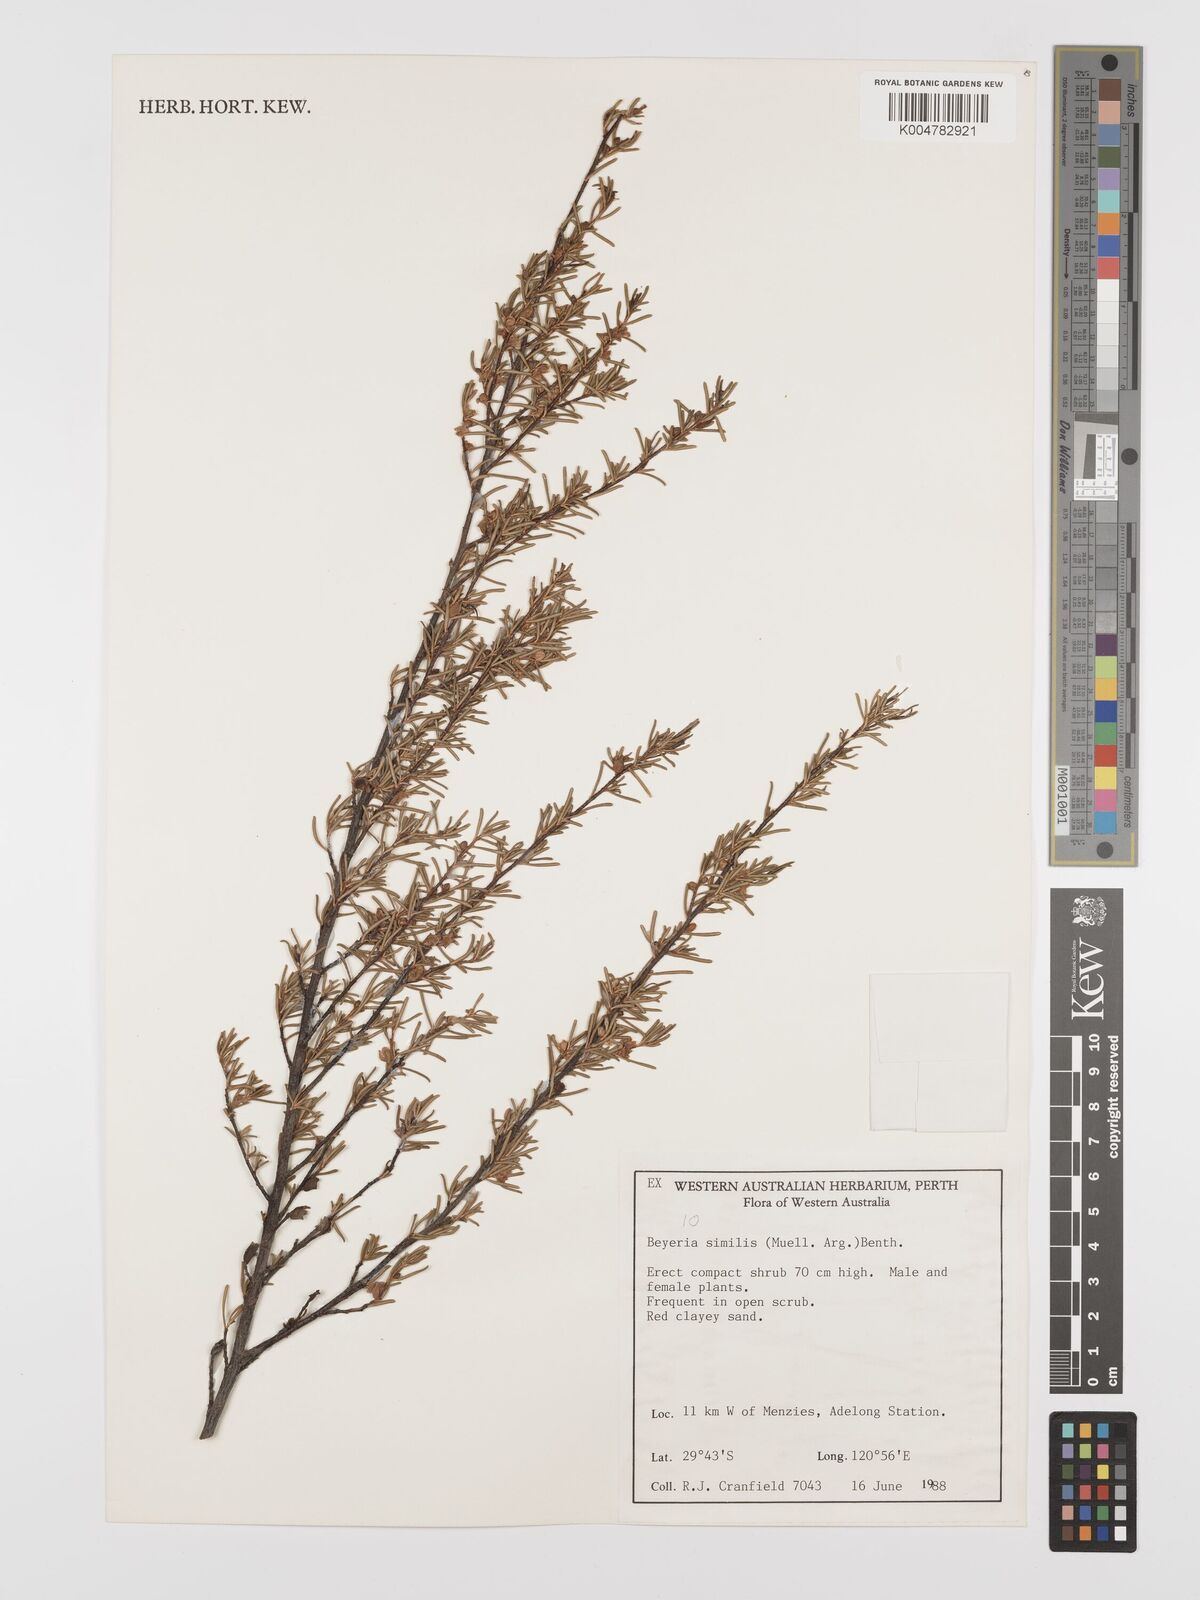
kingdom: Plantae
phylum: Tracheophyta
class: Magnoliopsida
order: Malpighiales
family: Euphorbiaceae
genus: Beyeria
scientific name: Beyeria similis
